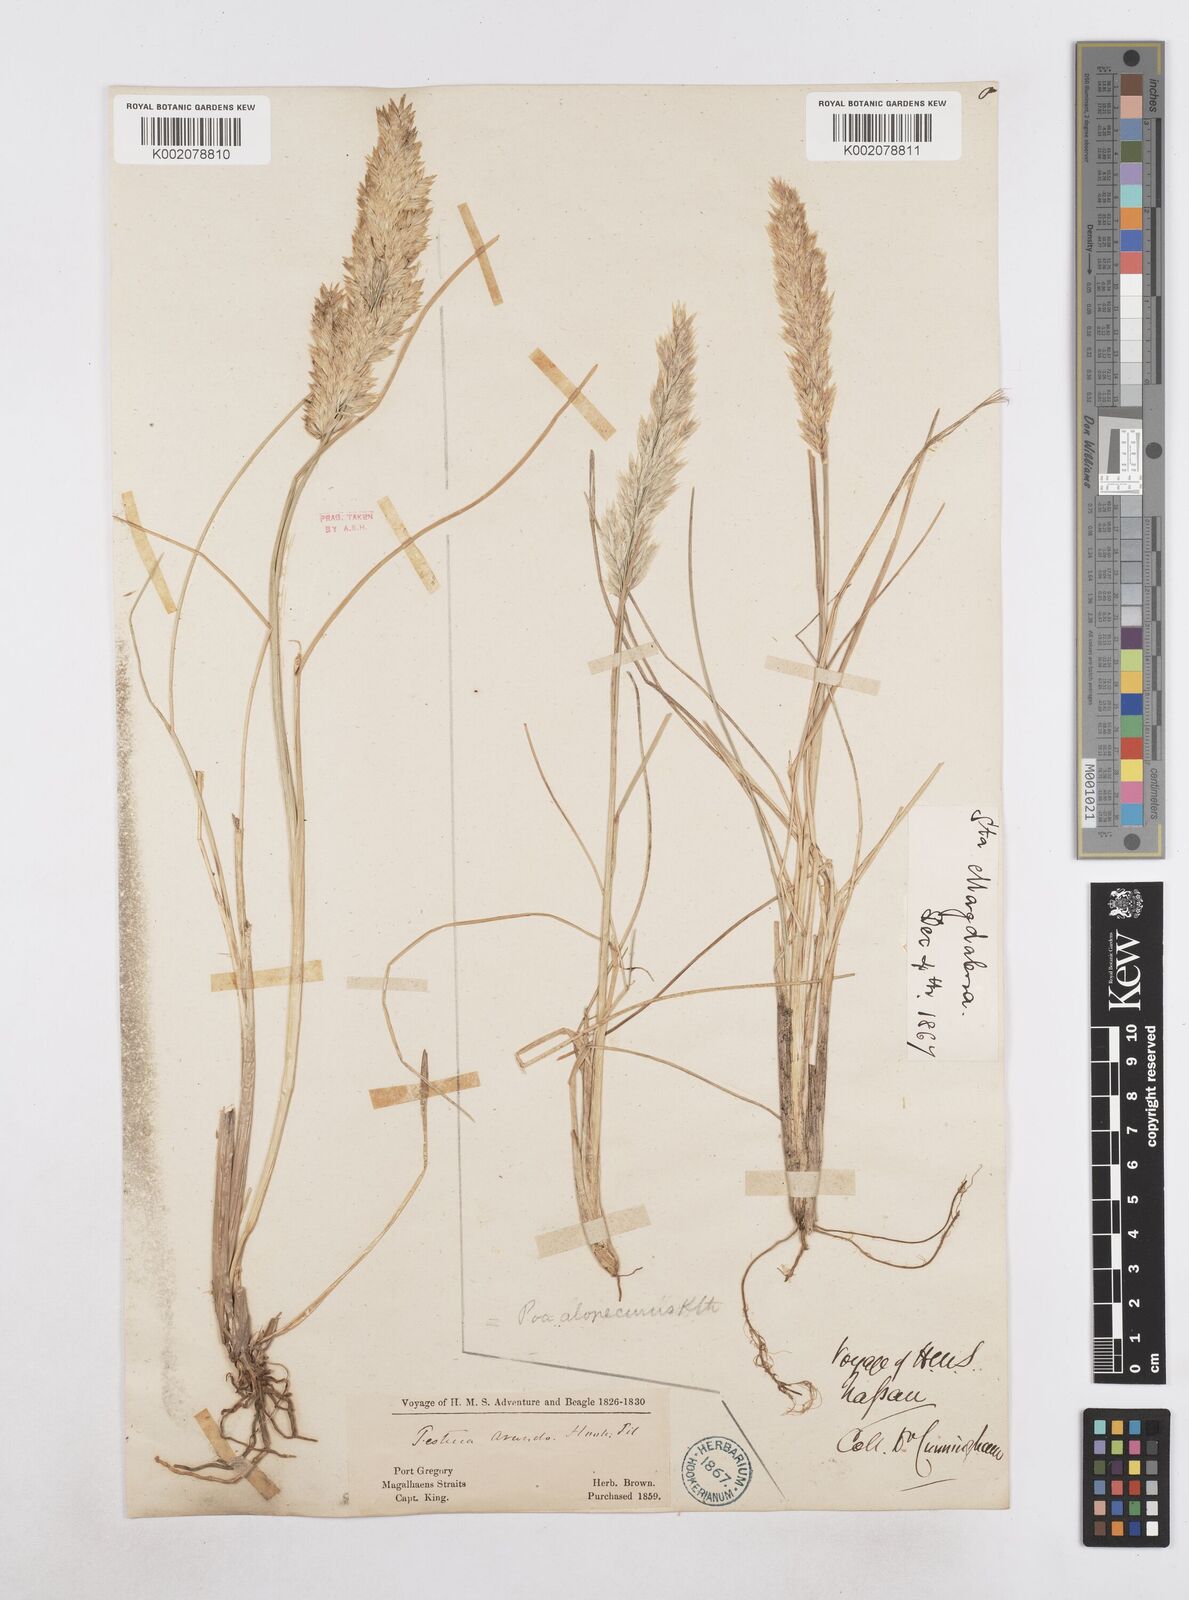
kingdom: Plantae
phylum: Tracheophyta
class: Liliopsida
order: Poales
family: Poaceae
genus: Poa
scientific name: Poa
